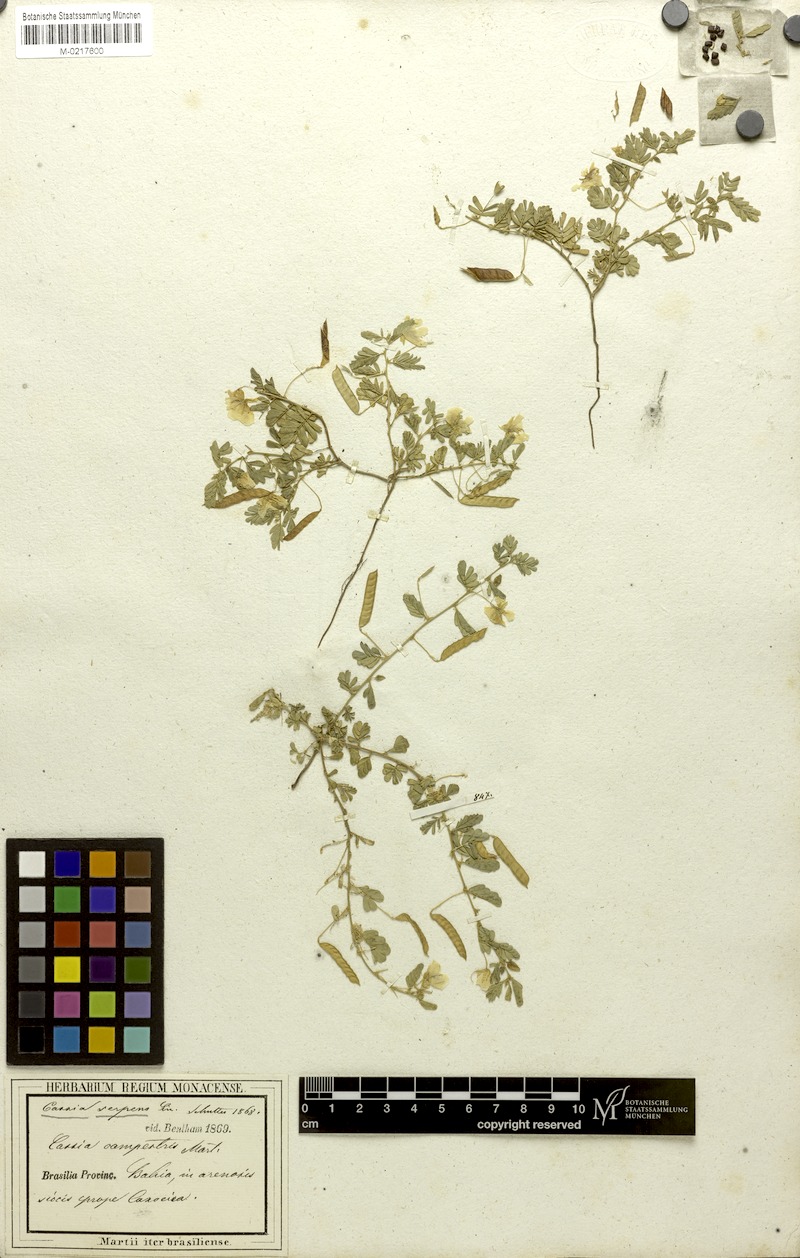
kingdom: Plantae
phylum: Tracheophyta
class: Magnoliopsida
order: Fabales
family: Fabaceae
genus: Chamaecrista
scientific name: Chamaecrista serpens
